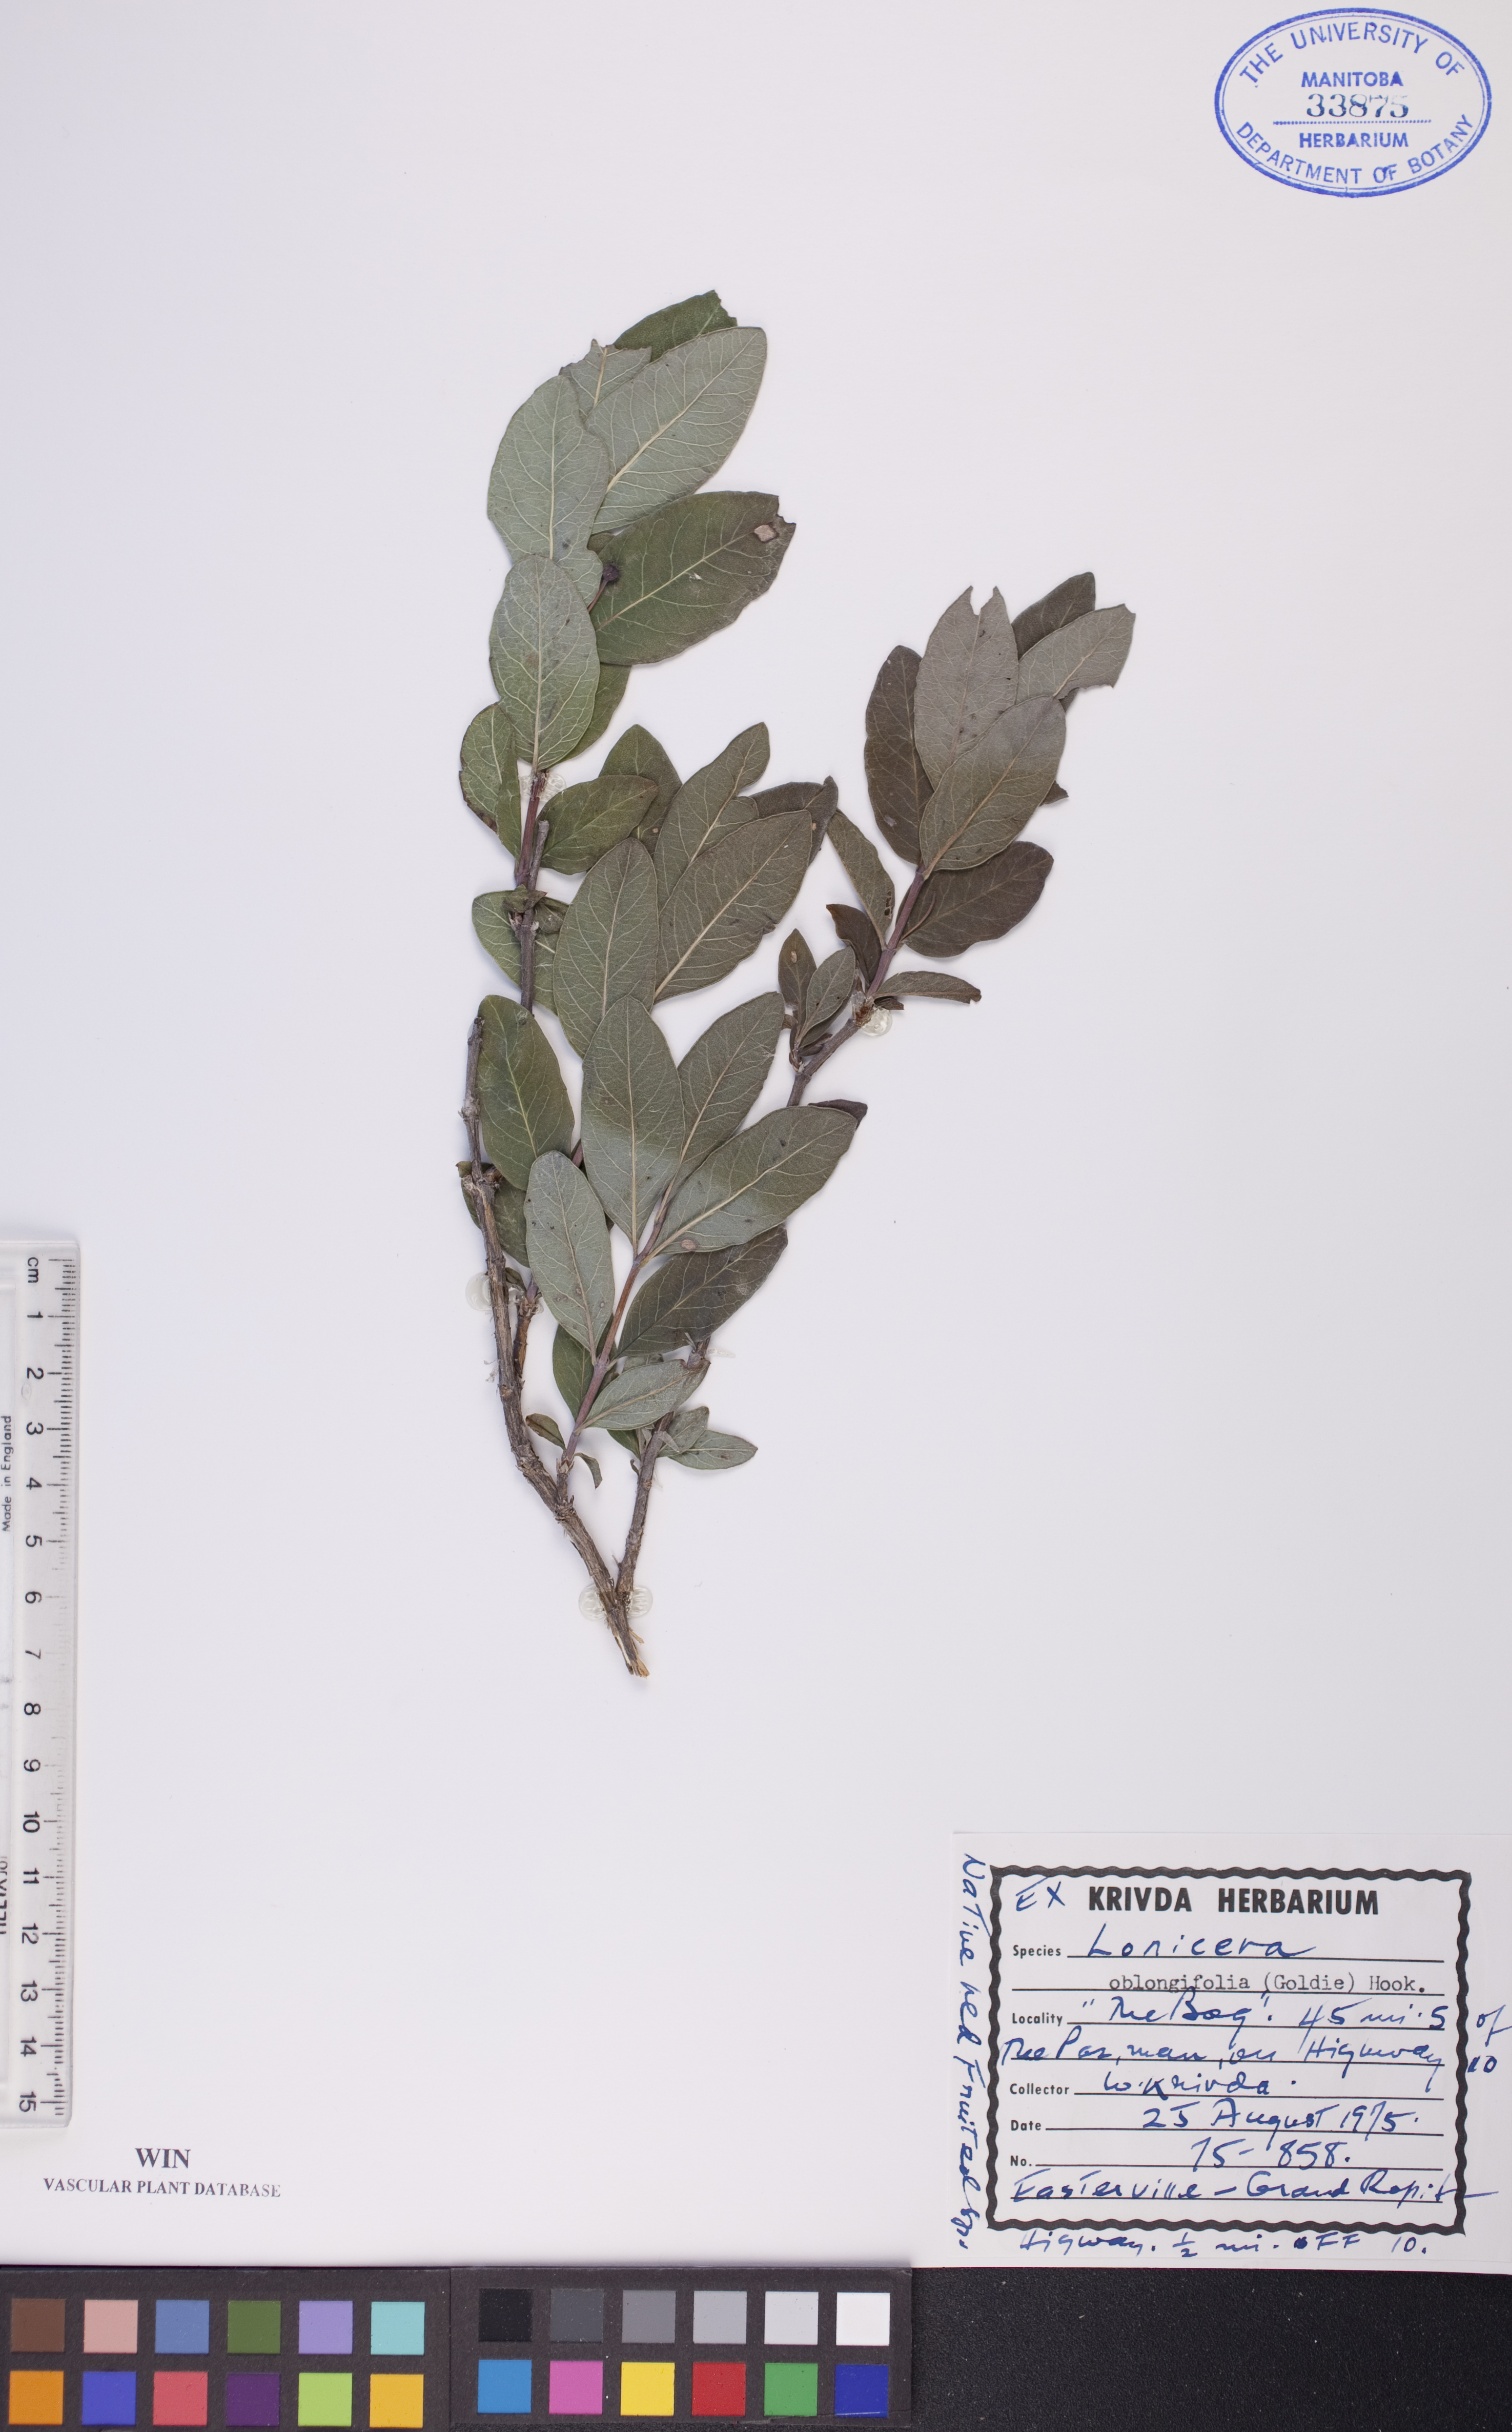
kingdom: Plantae
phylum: Tracheophyta
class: Magnoliopsida
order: Dipsacales
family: Caprifoliaceae
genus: Lonicera
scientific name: Lonicera oblongifolia
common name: Swamp fly honeysuckle
